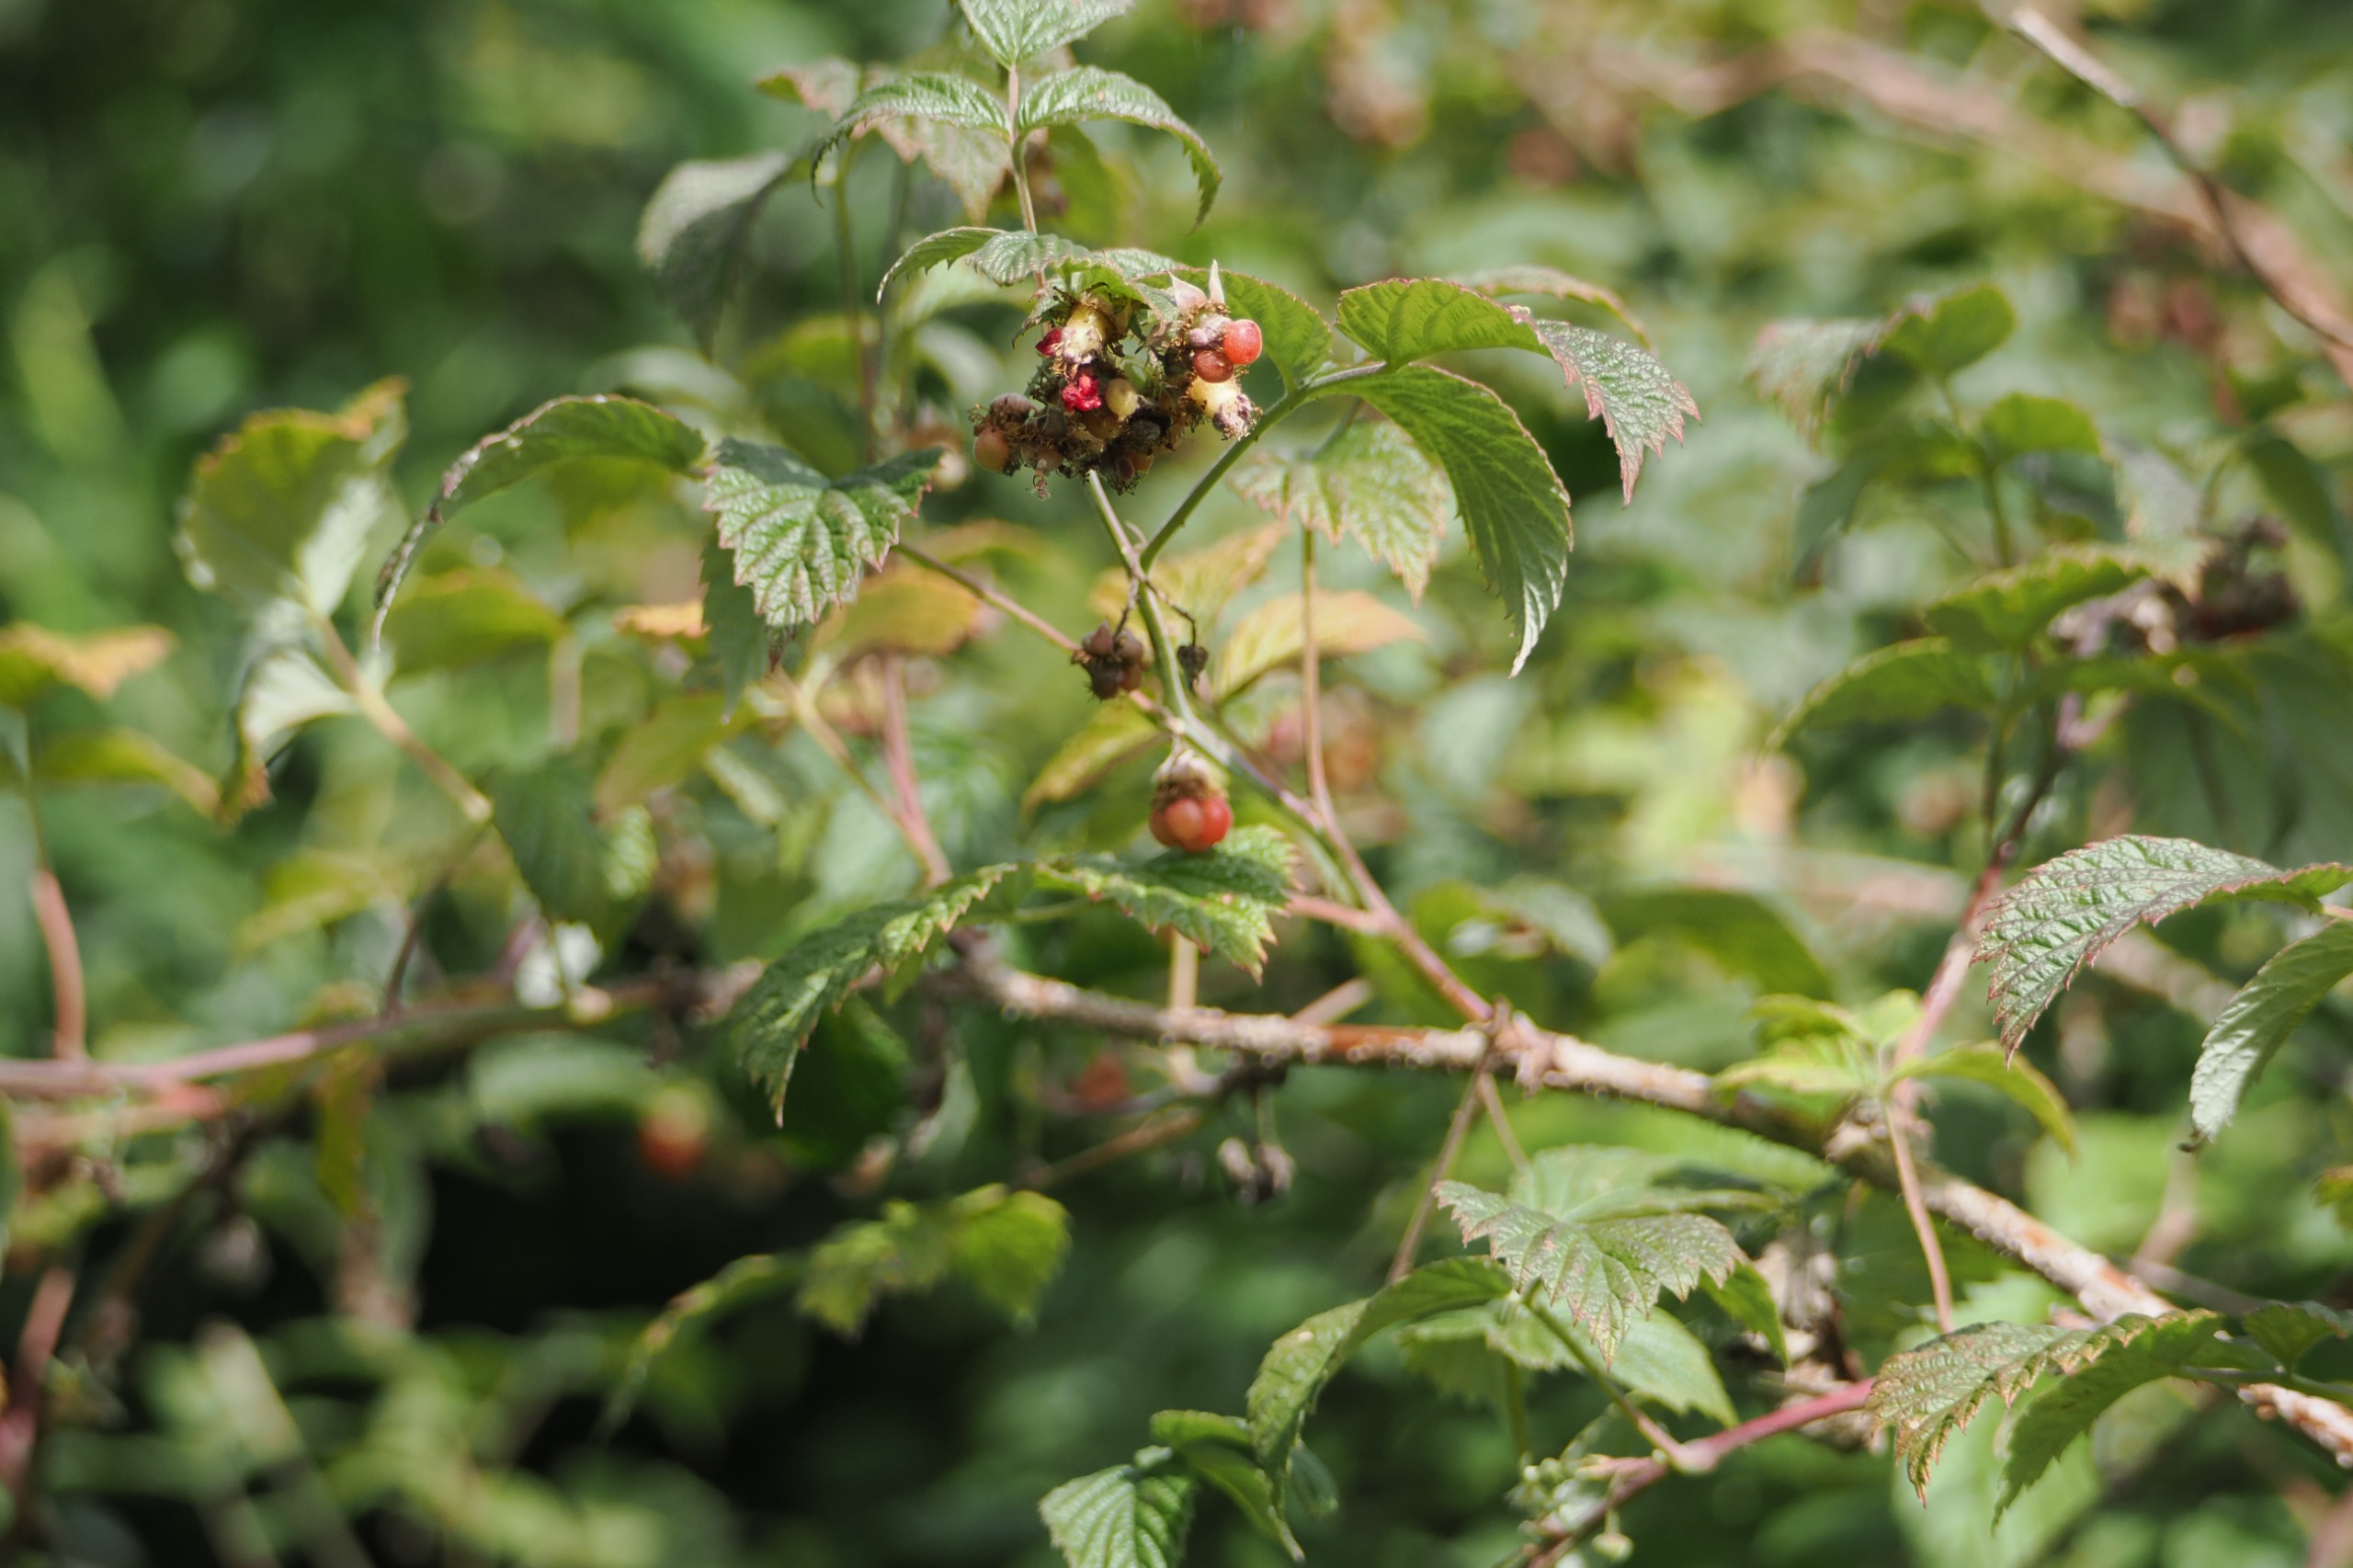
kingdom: Plantae
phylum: Tracheophyta
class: Magnoliopsida
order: Rosales
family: Rosaceae
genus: Rubus
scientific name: Rubus idaeus
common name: Hindbær
